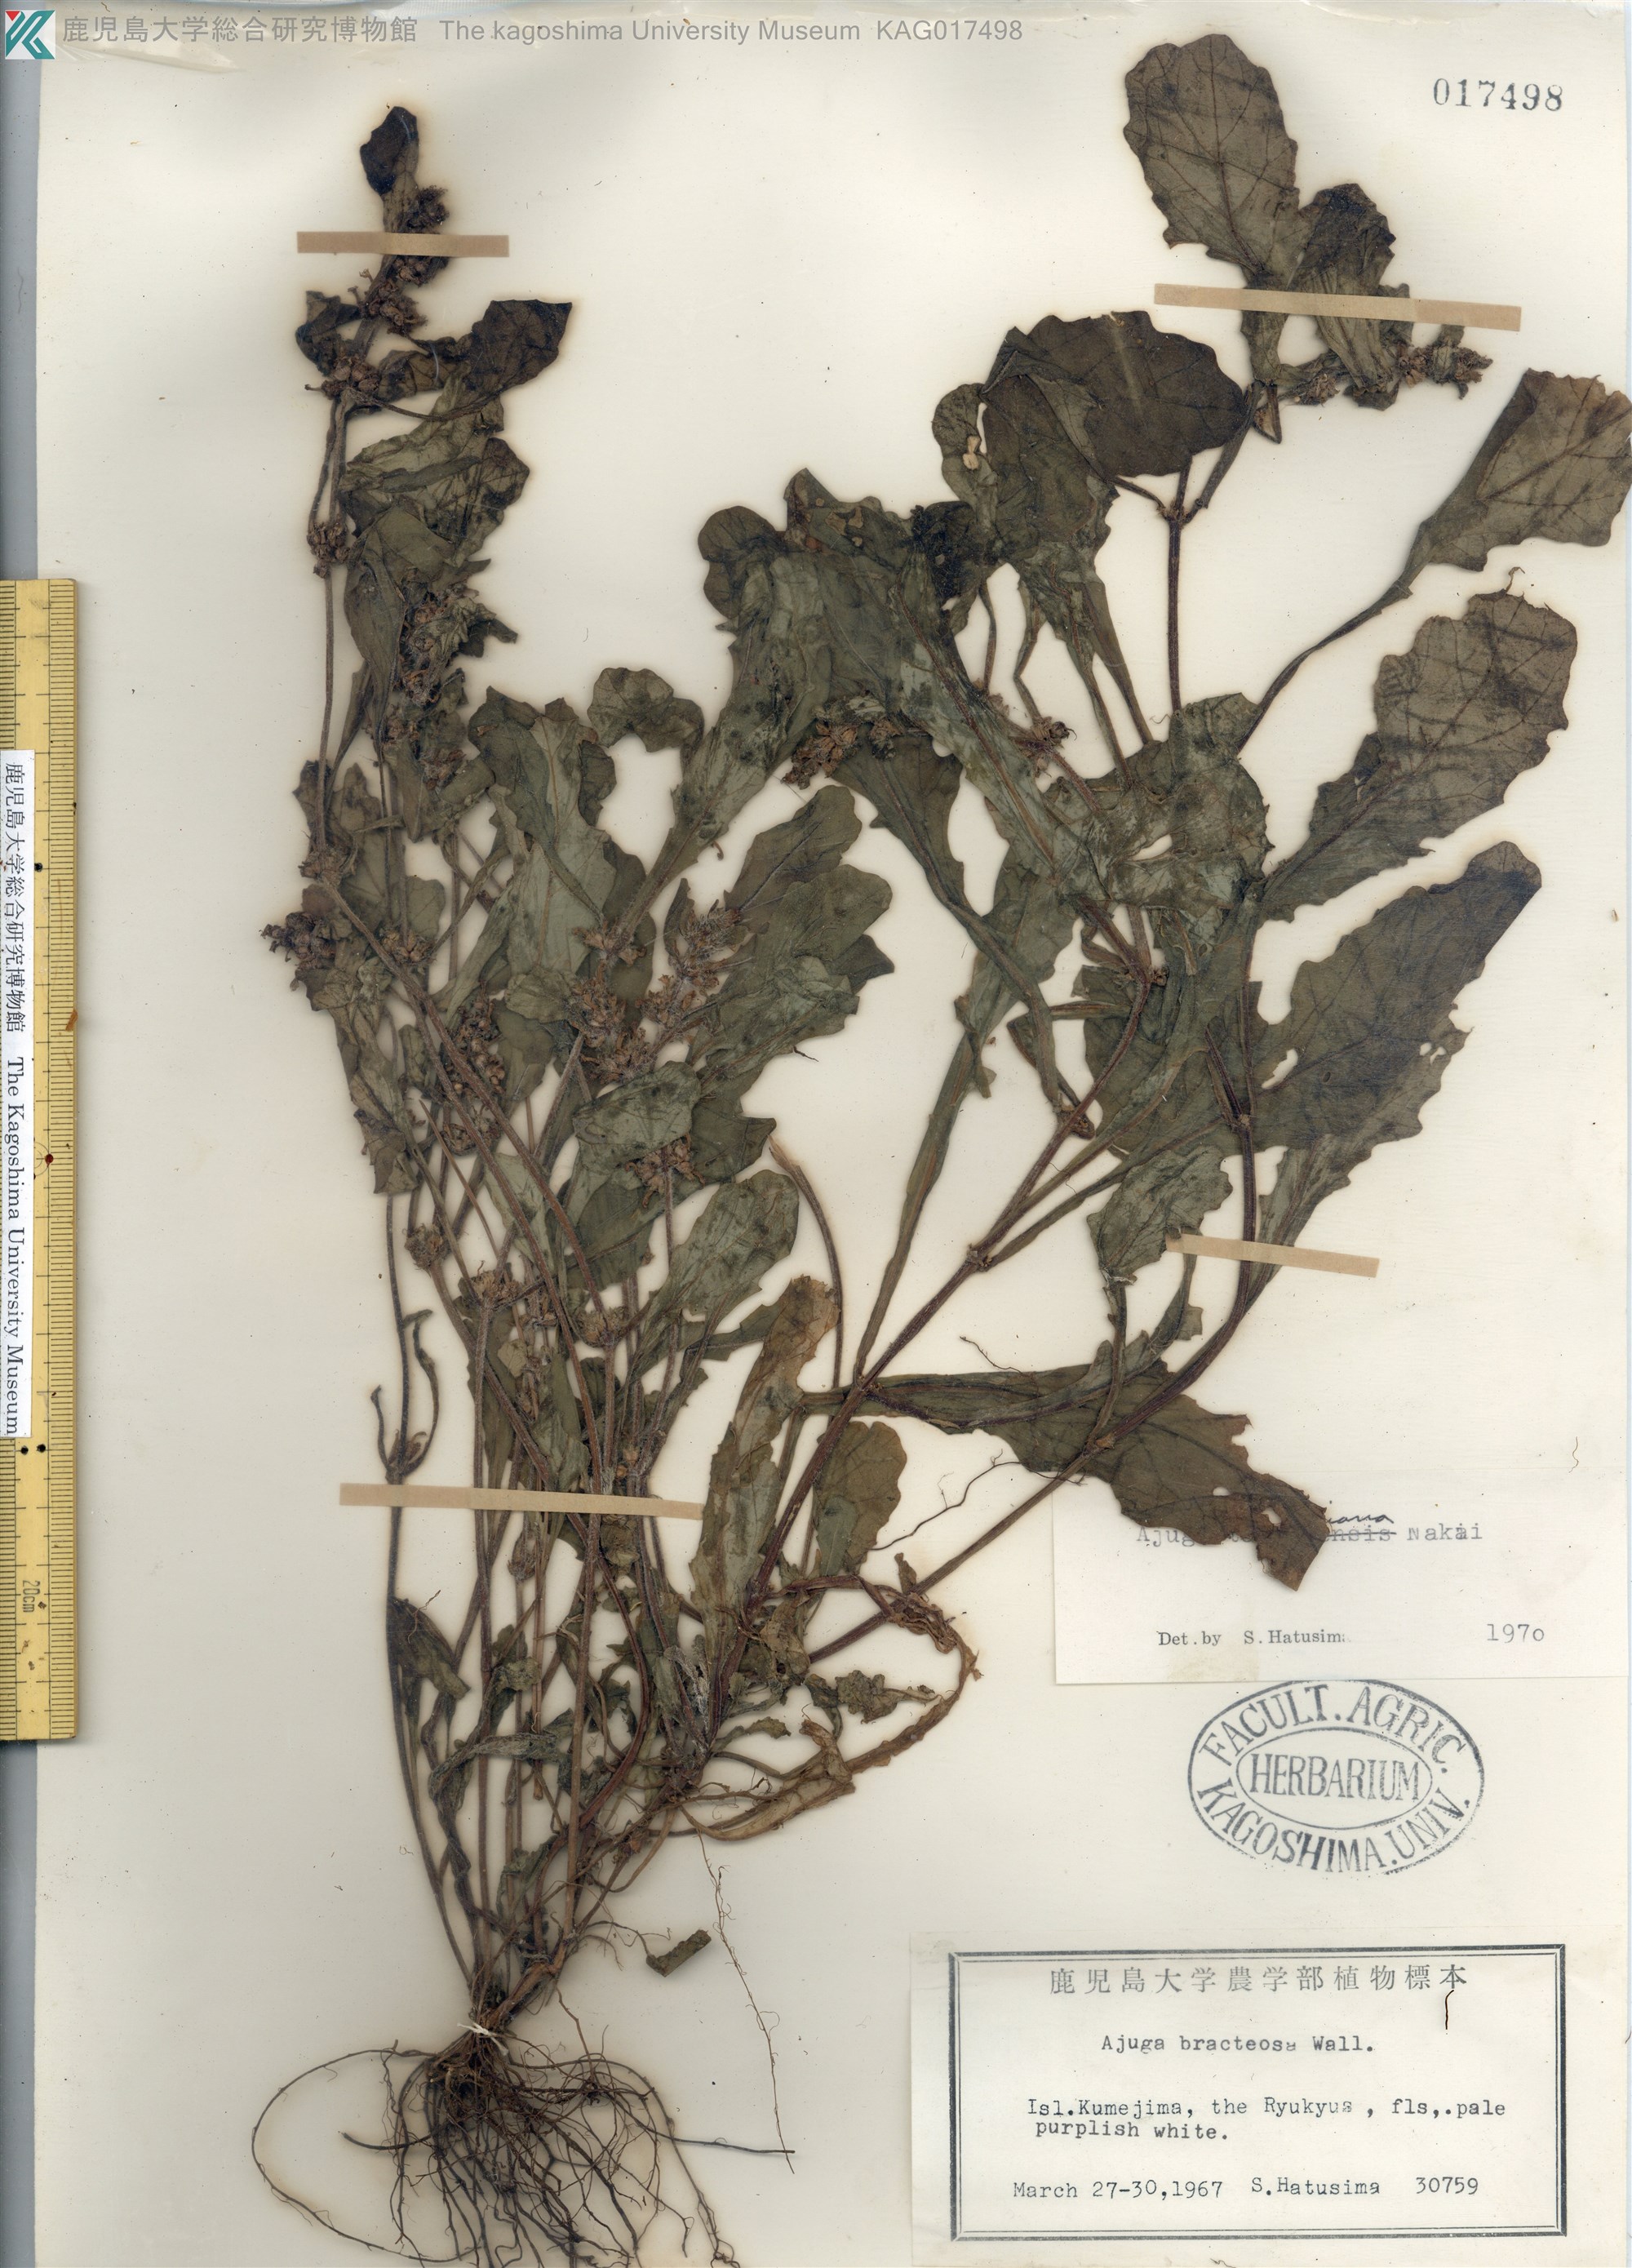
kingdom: Plantae
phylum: Tracheophyta
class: Magnoliopsida
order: Lamiales
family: Lamiaceae
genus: Ajuga
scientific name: Ajuga taiwanensis
